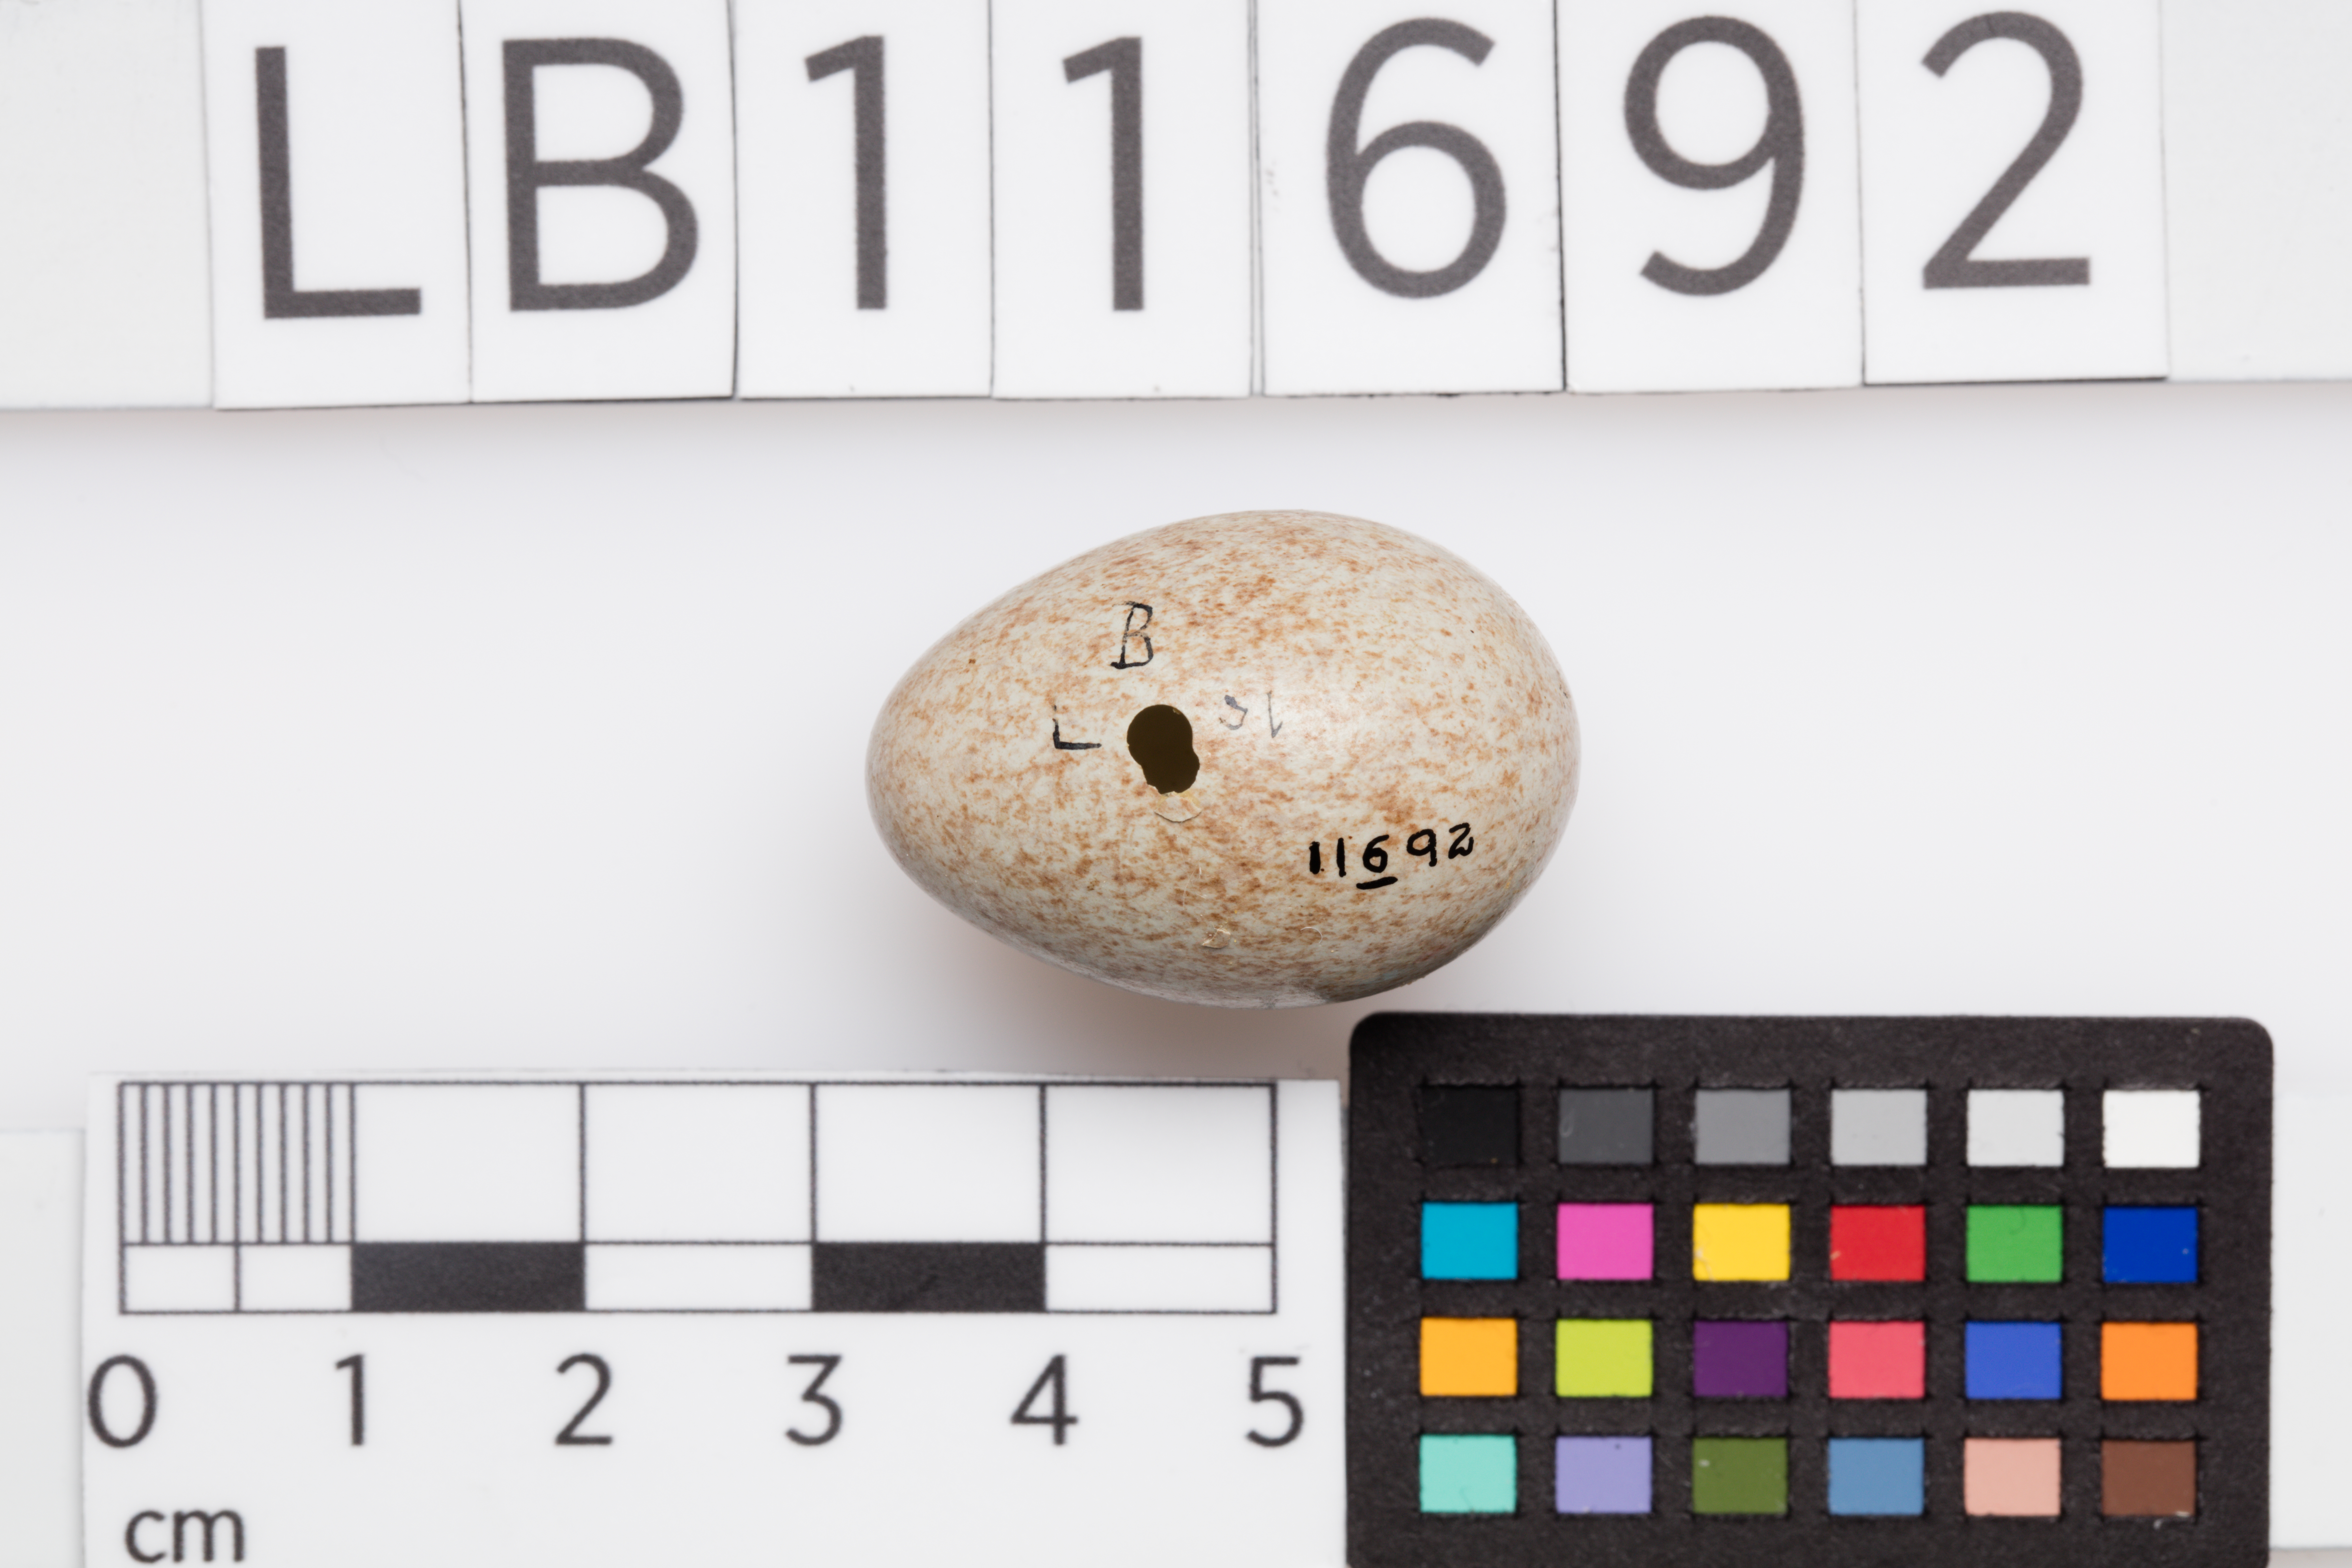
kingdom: Animalia
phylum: Chordata
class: Aves
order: Passeriformes
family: Turdidae
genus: Turdus
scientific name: Turdus merula
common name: Common blackbird
